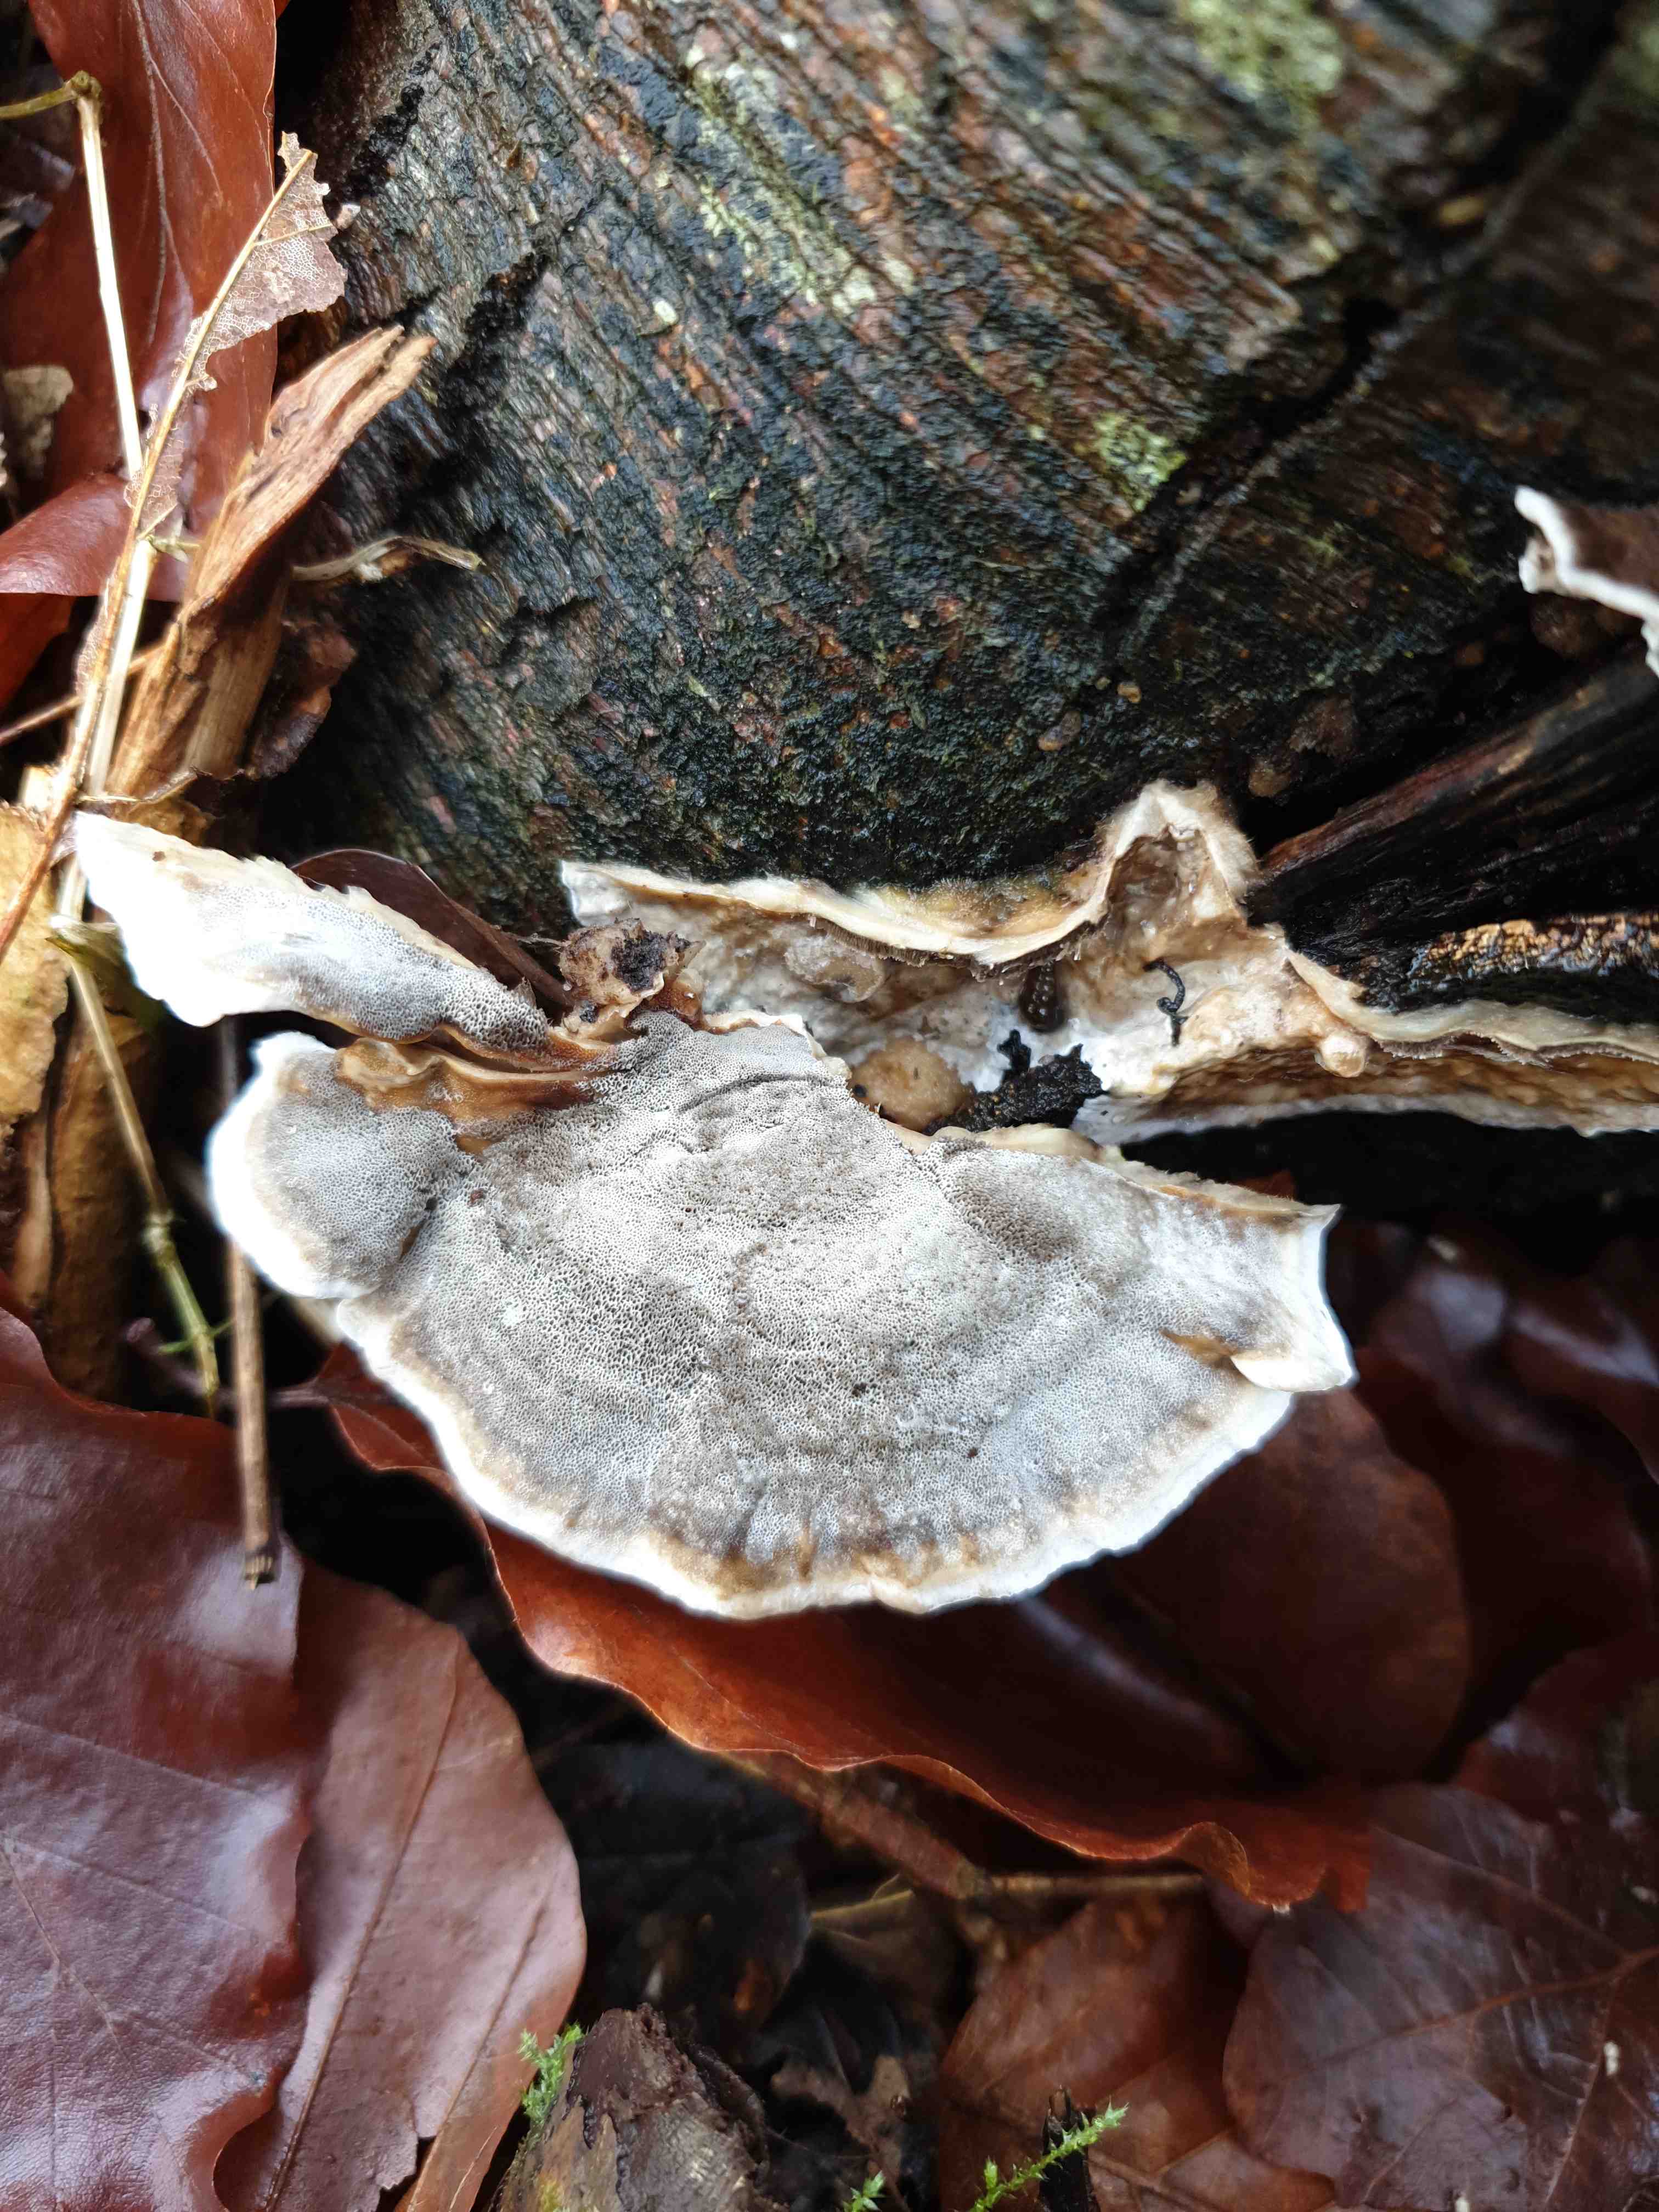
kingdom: Fungi
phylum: Basidiomycota
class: Agaricomycetes
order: Polyporales
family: Phanerochaetaceae
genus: Bjerkandera
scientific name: Bjerkandera adusta
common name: sveden sodporesvamp
